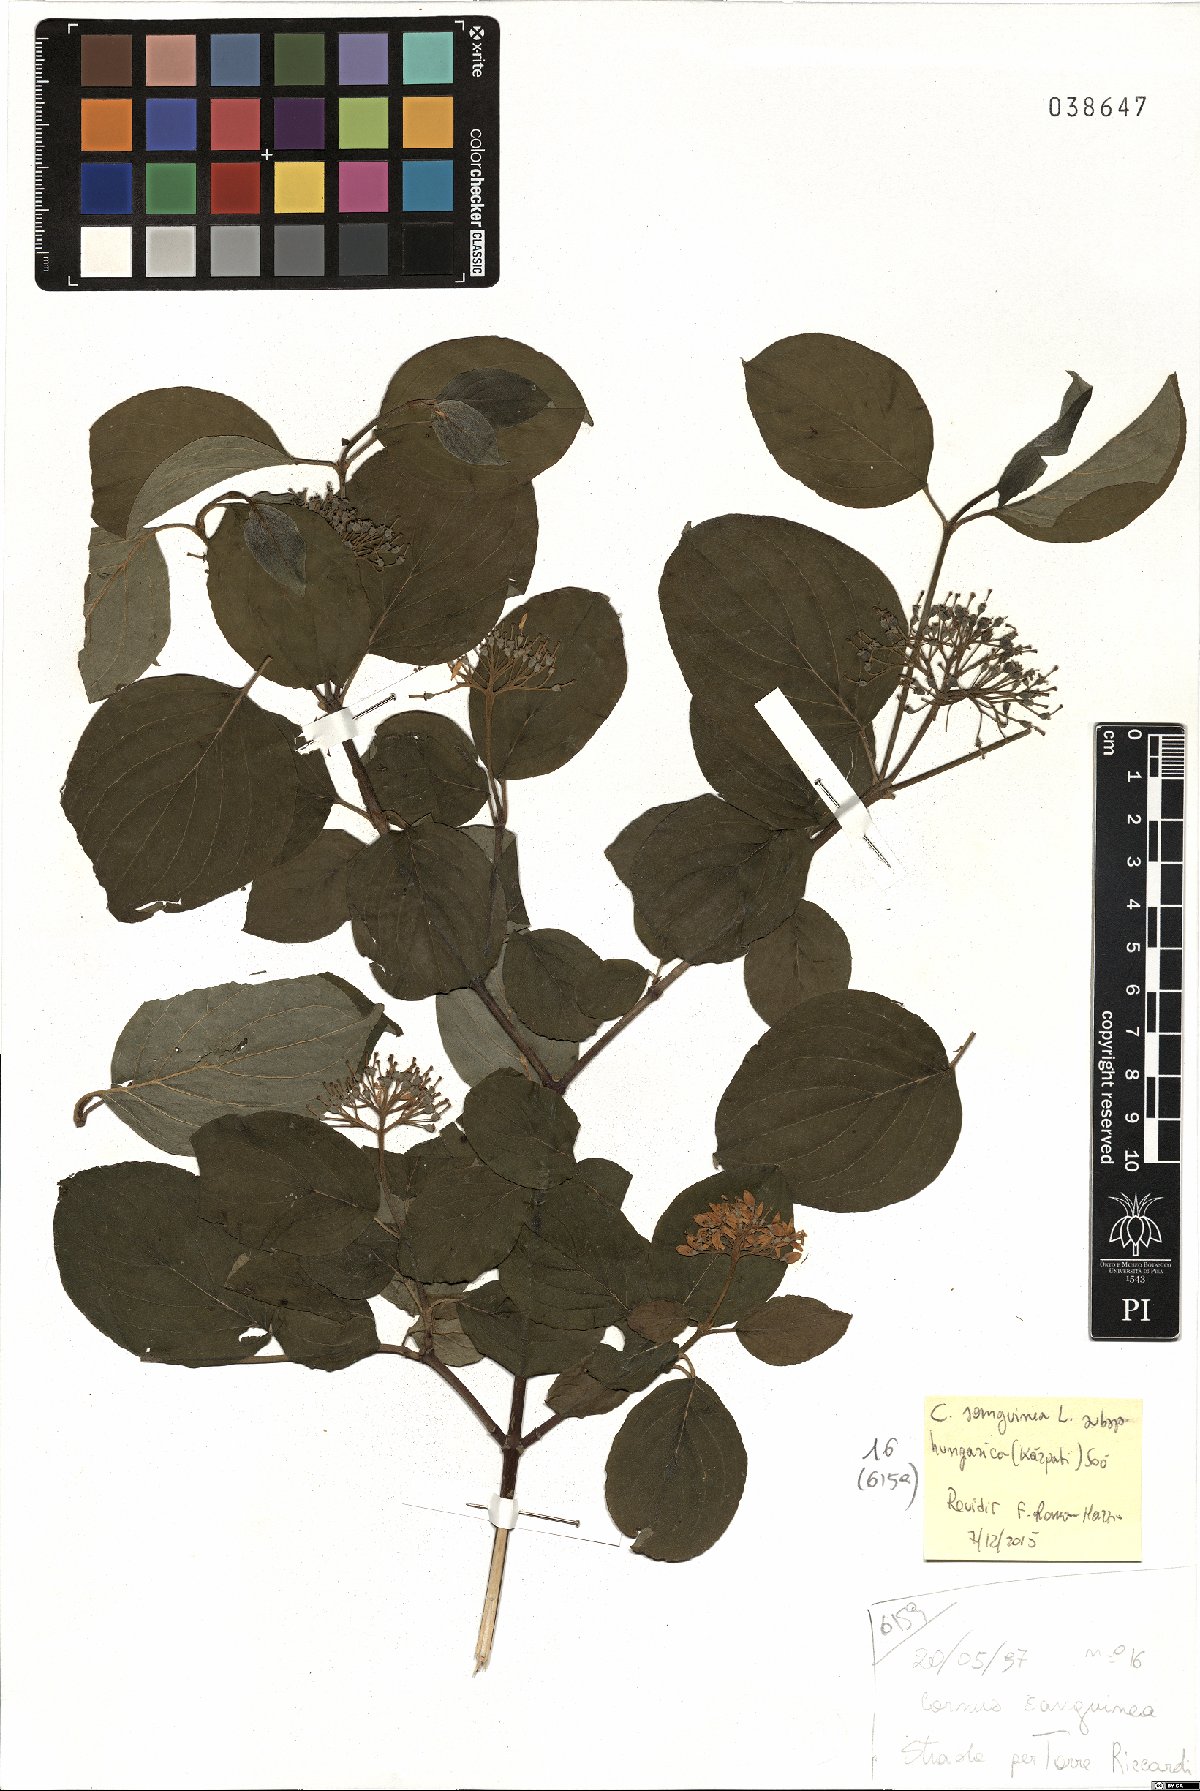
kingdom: Plantae
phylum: Tracheophyta
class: Magnoliopsida
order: Cornales
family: Cornaceae
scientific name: Cornaceae
